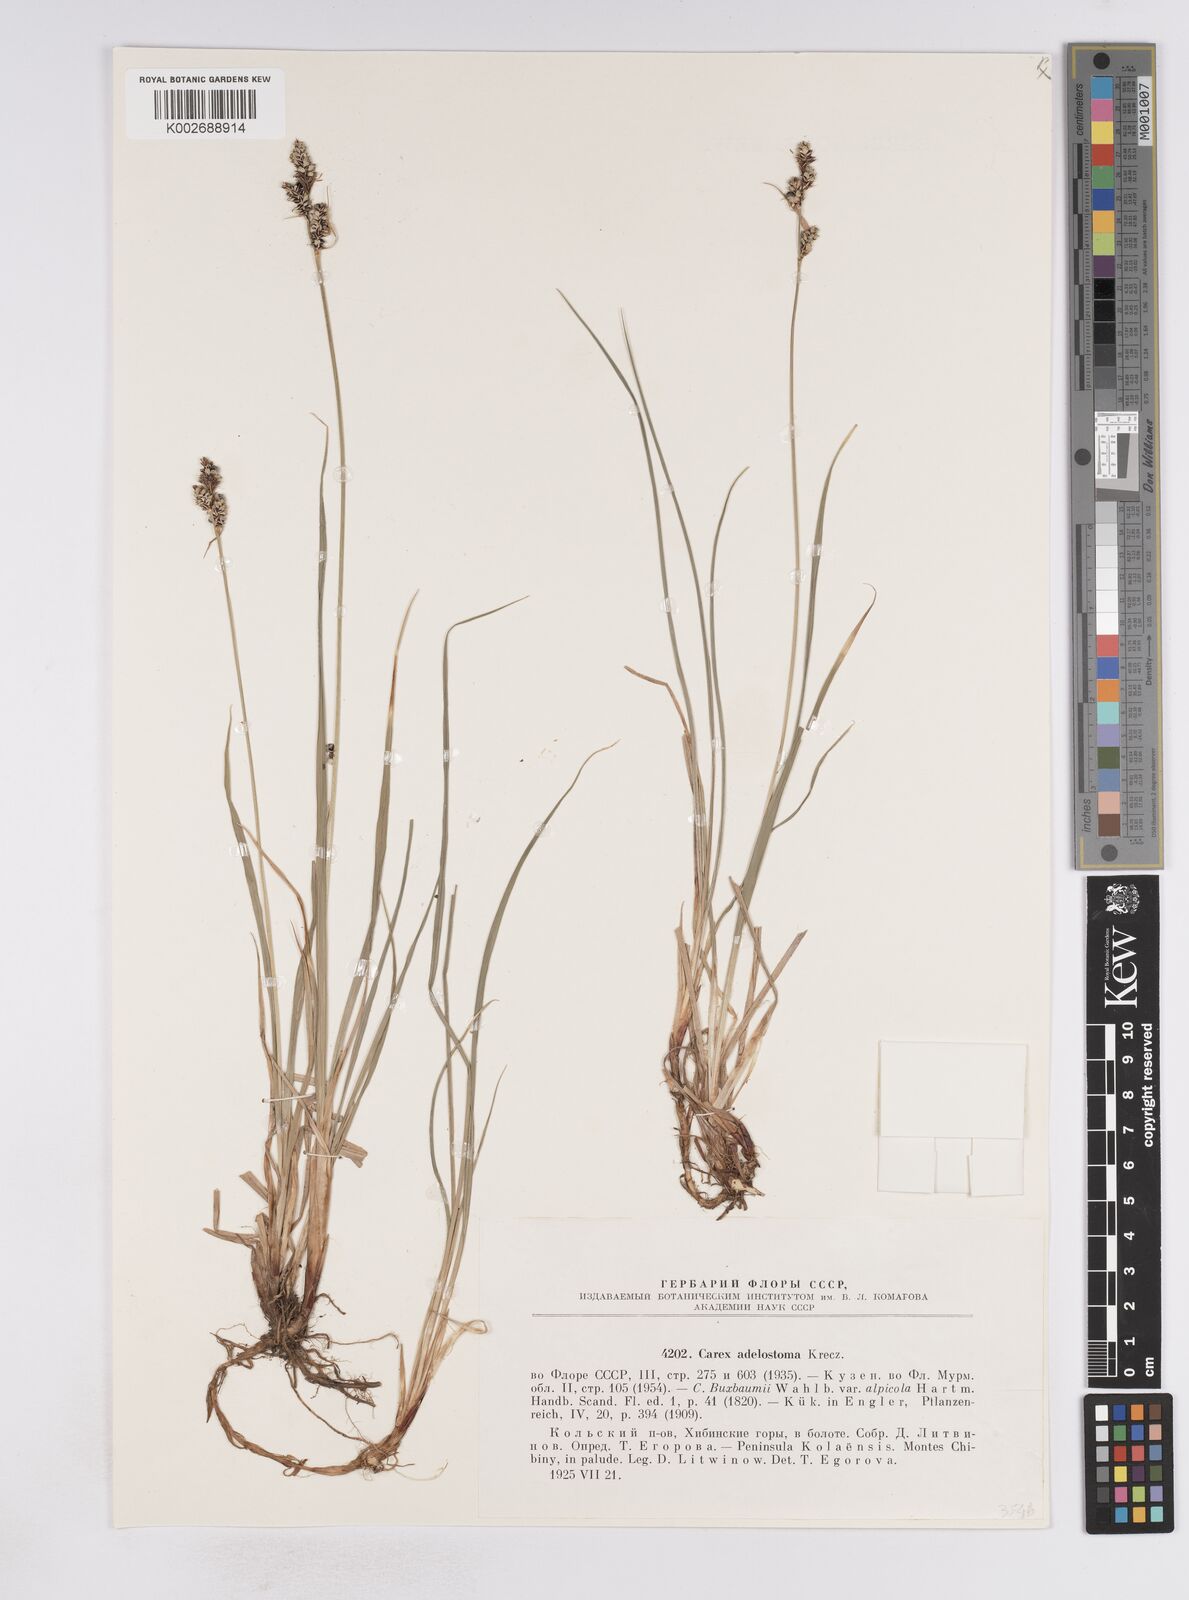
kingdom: Plantae
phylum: Tracheophyta
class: Liliopsida
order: Poales
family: Cyperaceae
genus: Carex
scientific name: Carex adelostoma
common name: Circumpolar sedge
